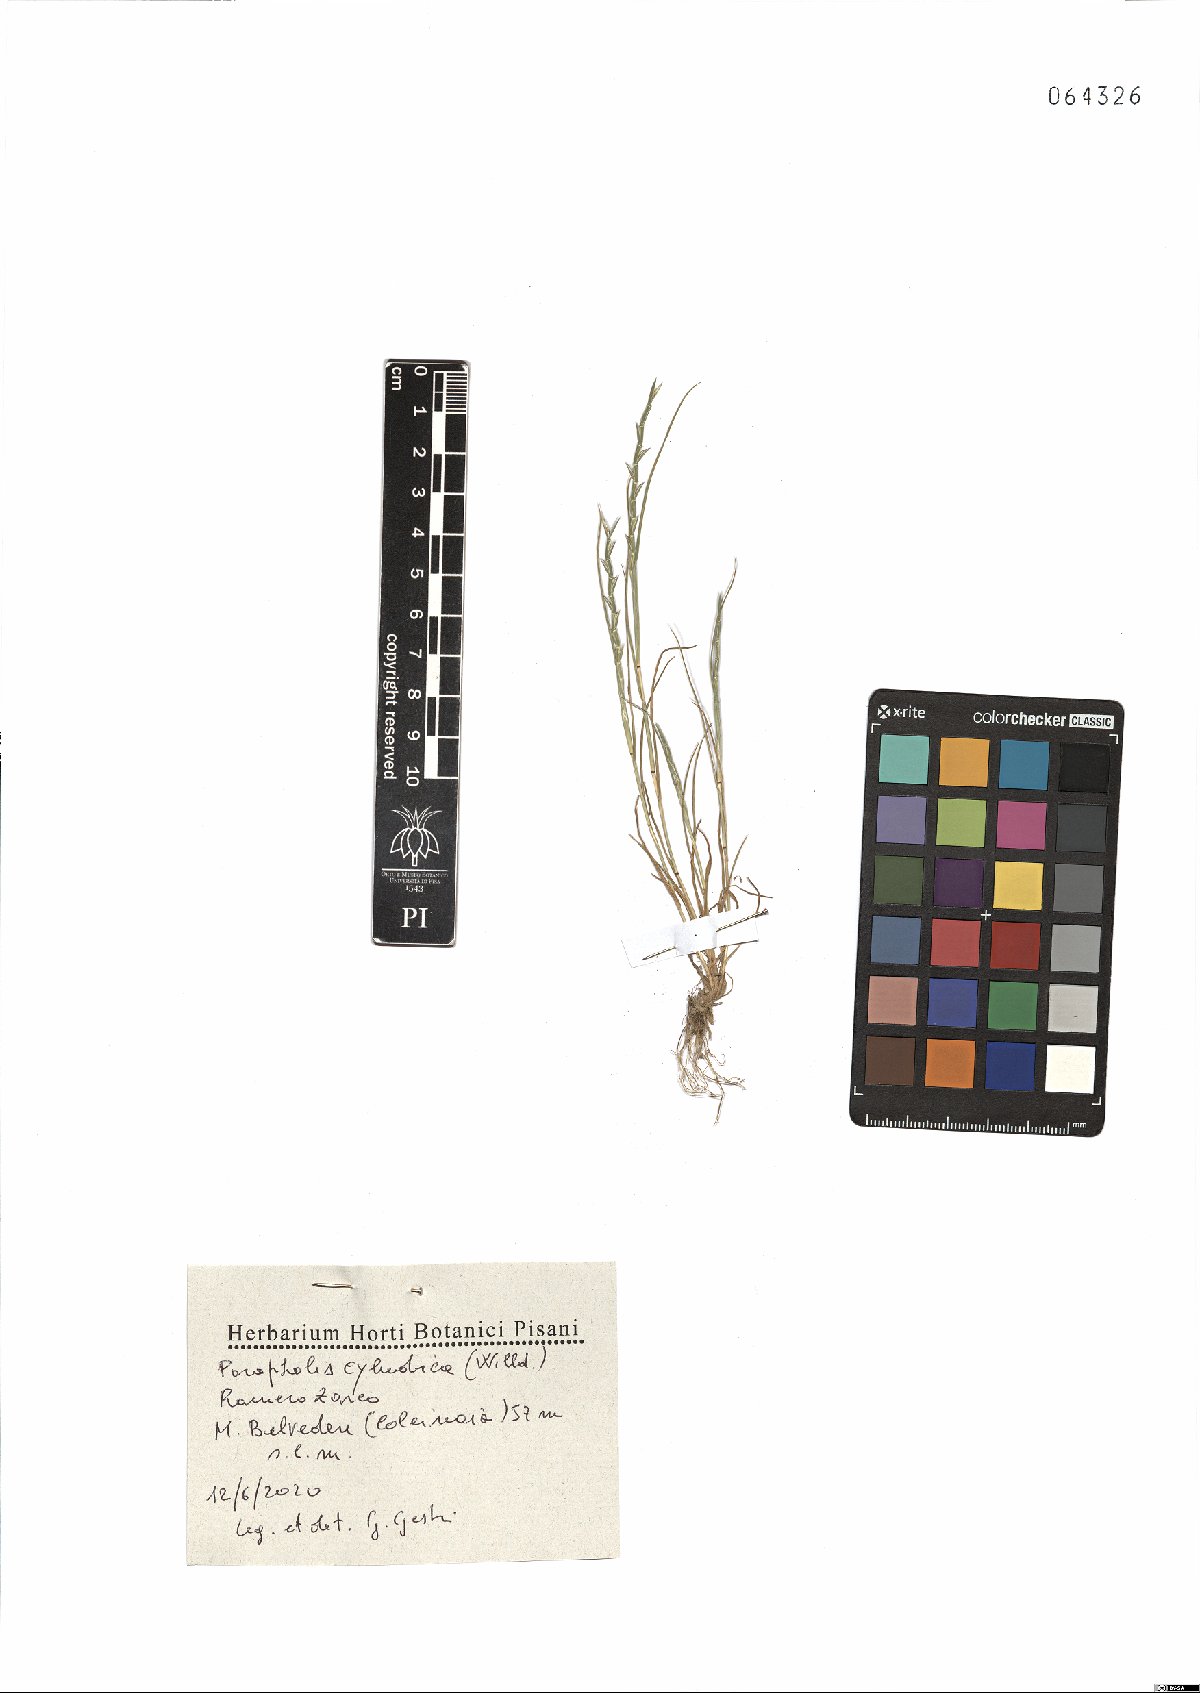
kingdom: Plantae
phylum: Tracheophyta
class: Liliopsida
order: Poales
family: Poaceae
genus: Parapholis
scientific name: Parapholis cylindrica
